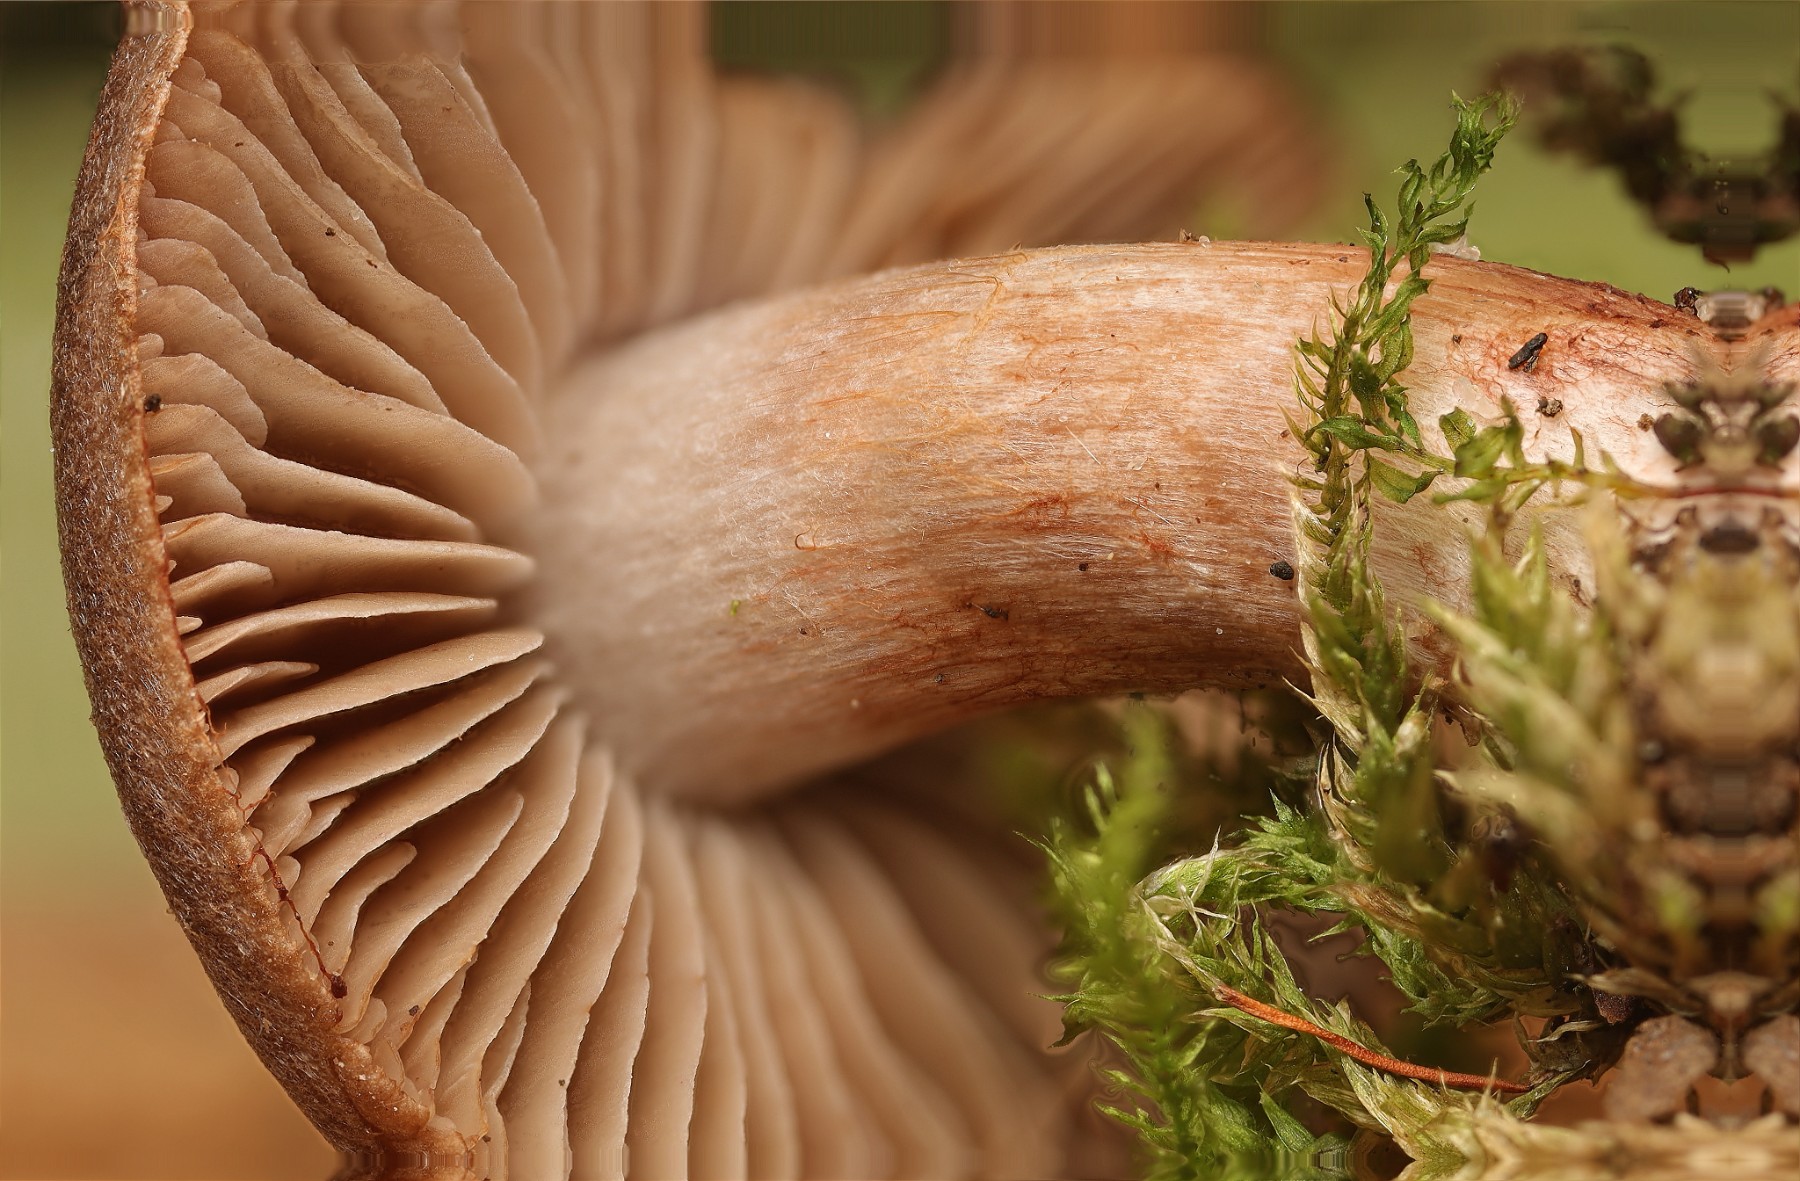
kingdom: Fungi
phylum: Basidiomycota
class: Agaricomycetes
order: Agaricales
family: Cortinariaceae
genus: Cortinarius
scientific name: Cortinarius inconspicuus
